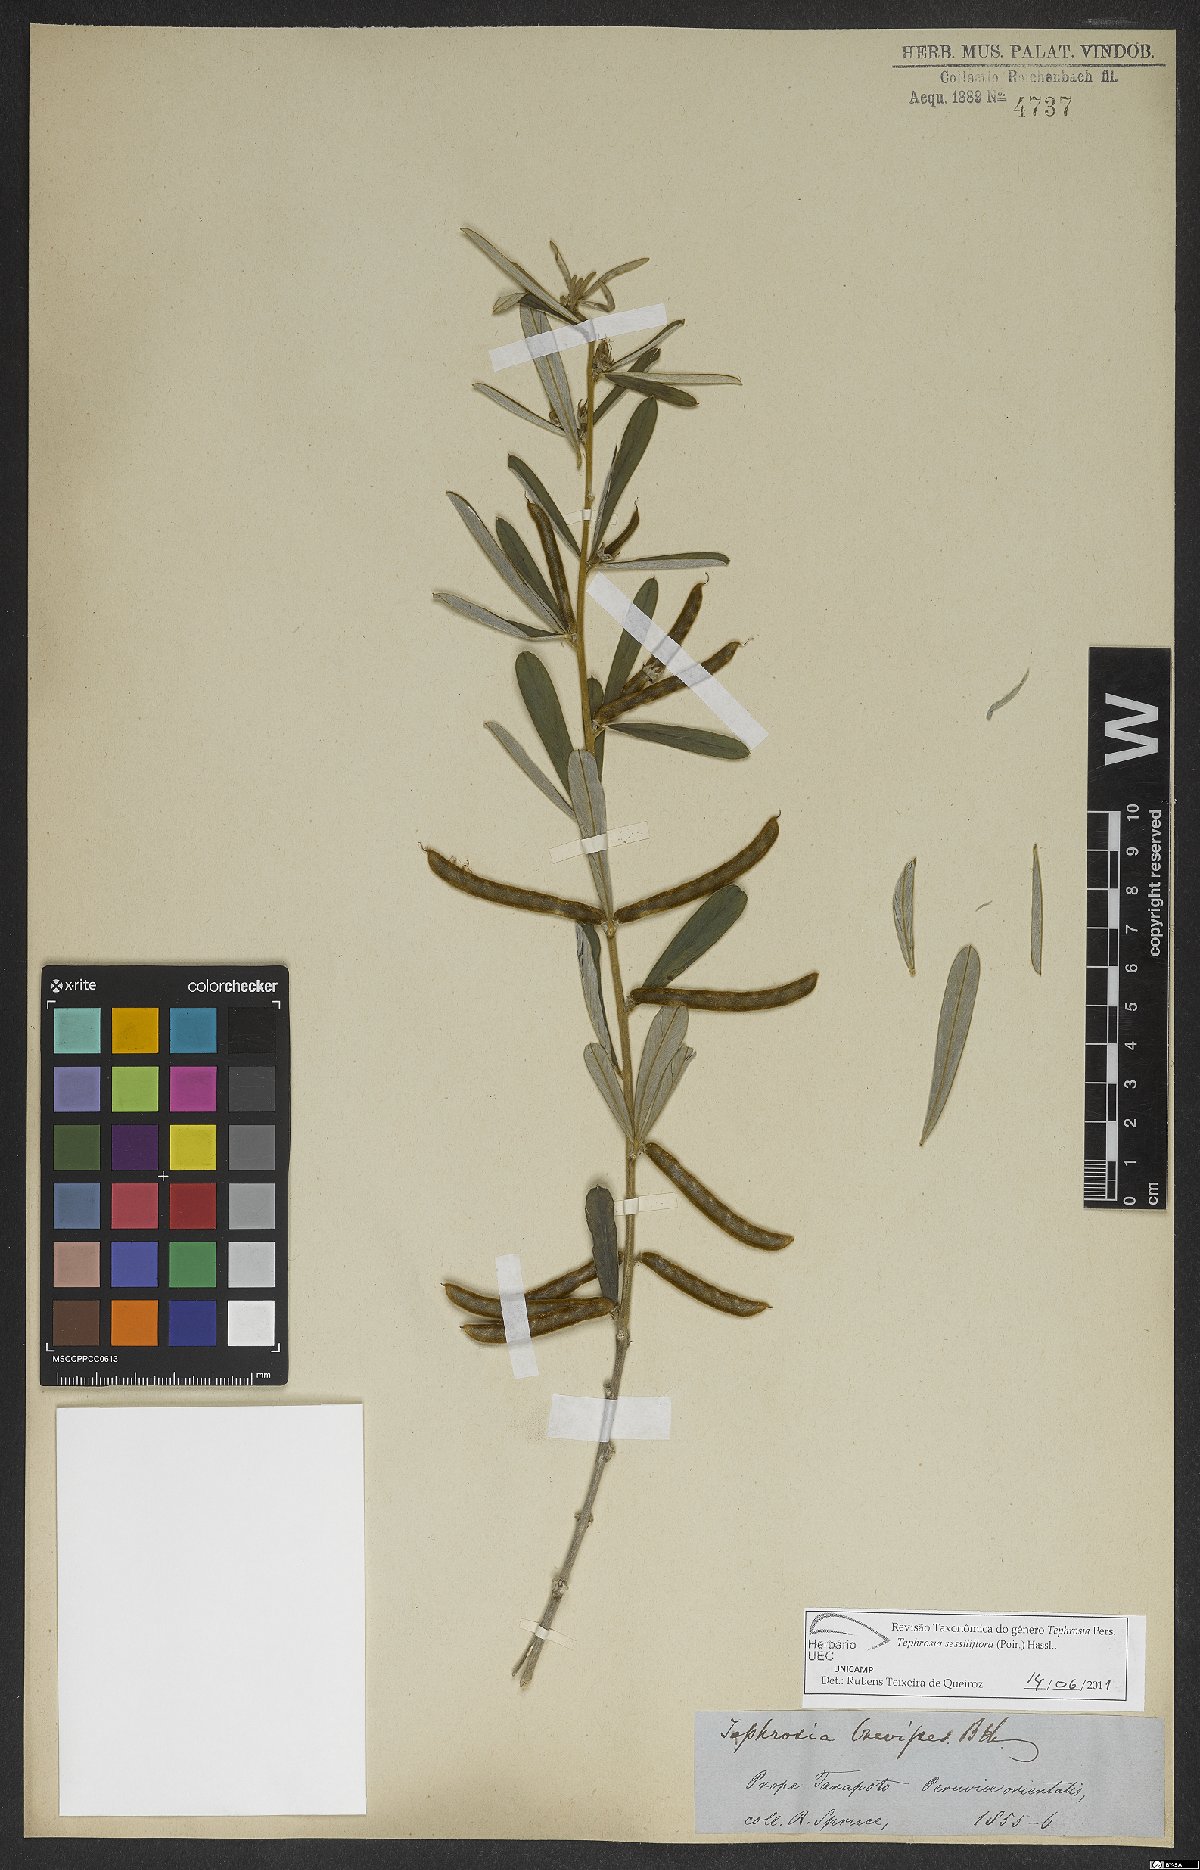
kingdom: Plantae
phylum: Tracheophyta
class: Magnoliopsida
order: Fabales
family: Fabaceae
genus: Tephrosia
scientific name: Tephrosia sessiliflora
